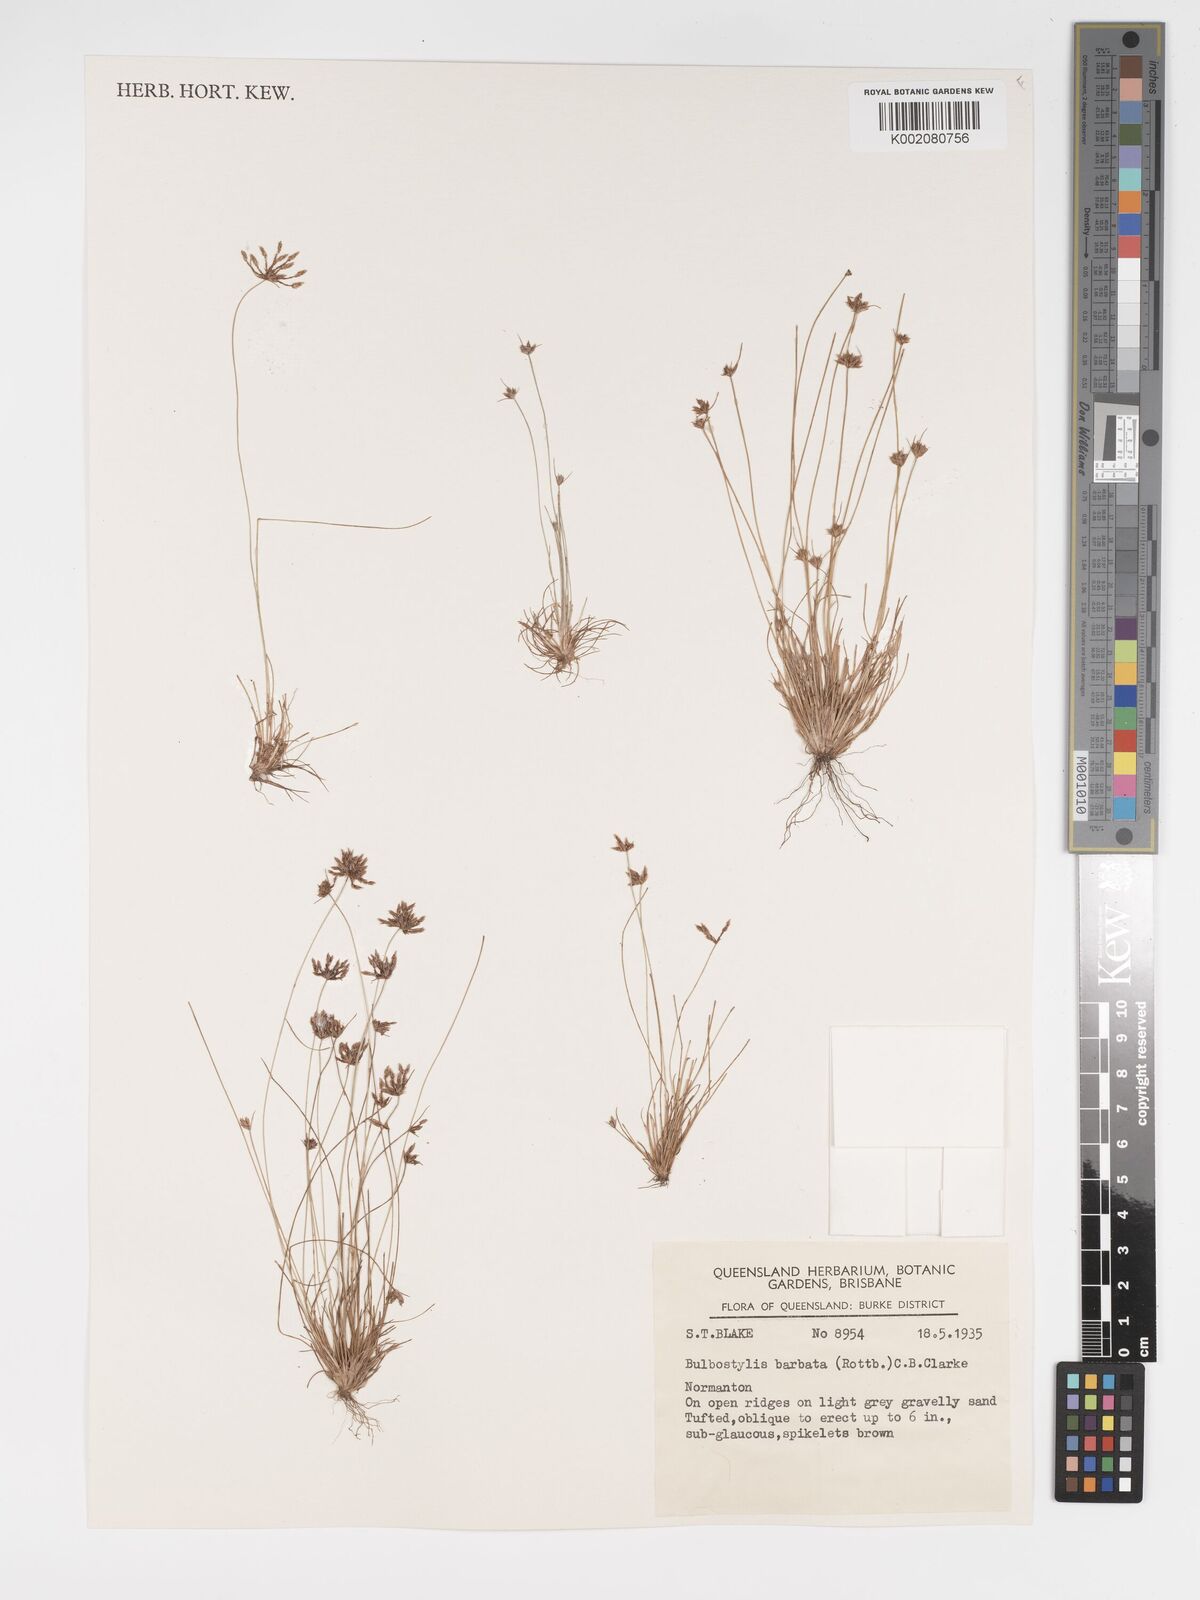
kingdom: Plantae
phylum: Tracheophyta
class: Liliopsida
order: Poales
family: Cyperaceae
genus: Bulbostylis
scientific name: Bulbostylis barbata
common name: Watergrass
